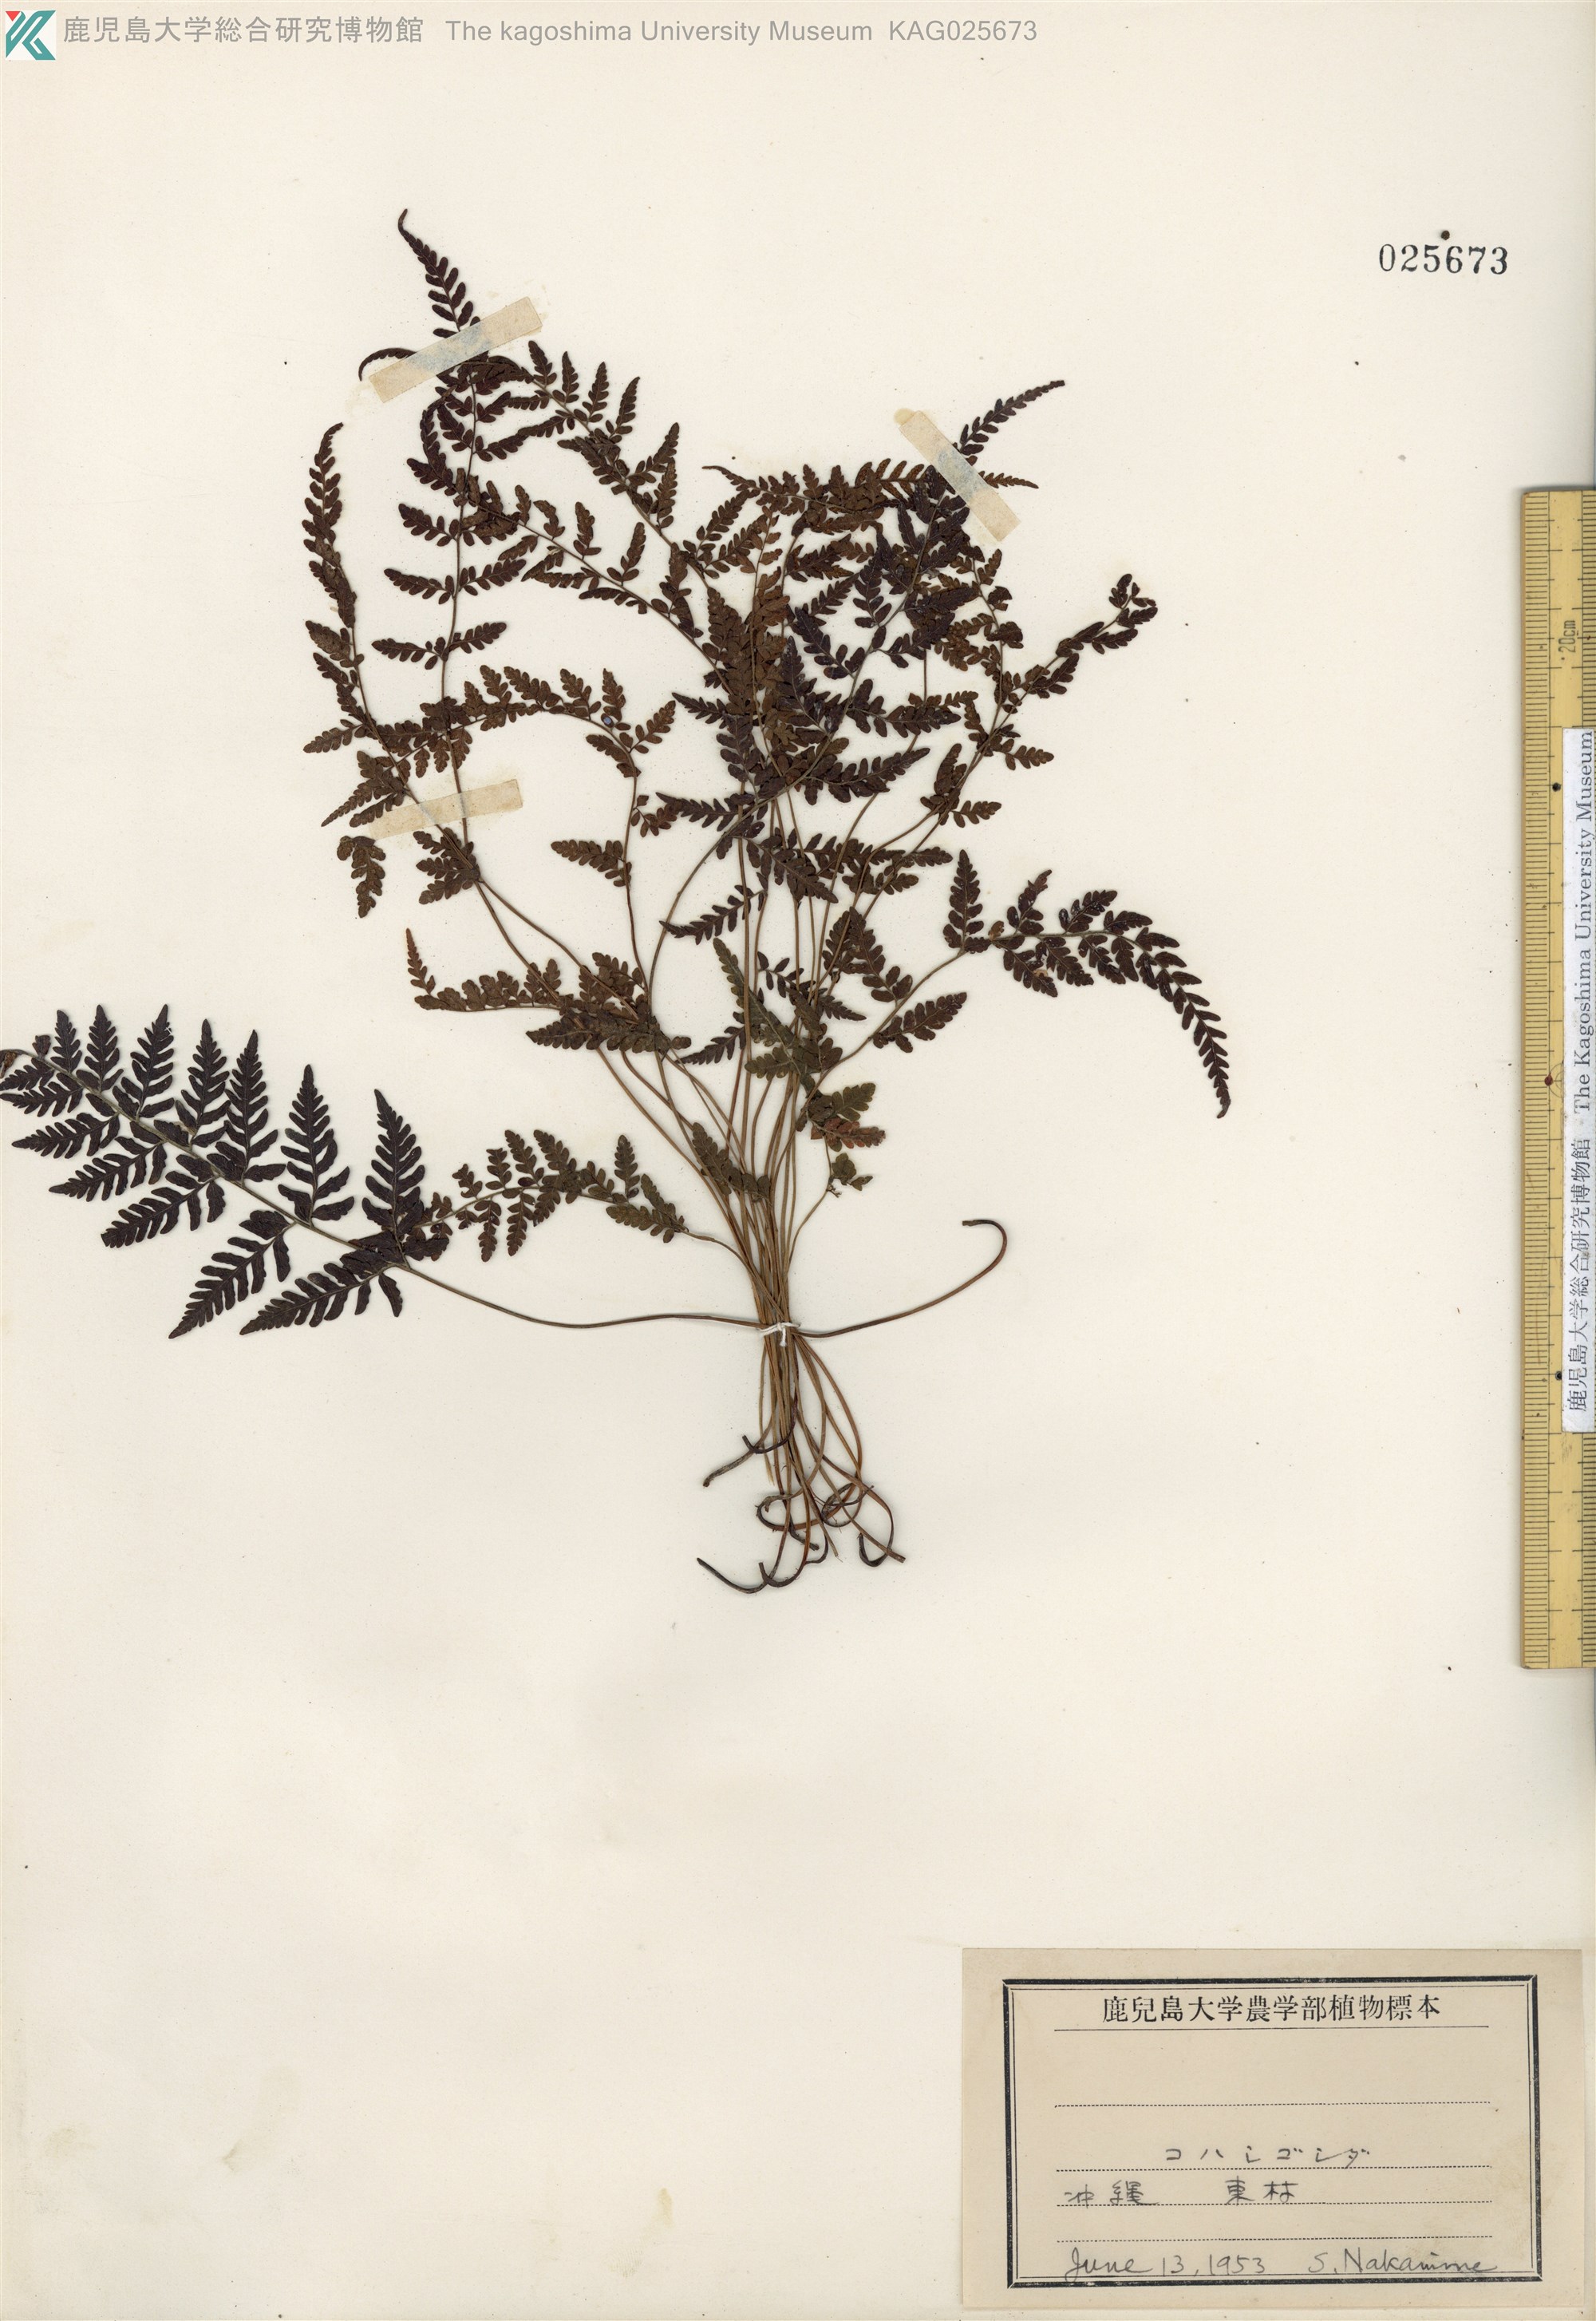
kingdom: Plantae
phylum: Tracheophyta
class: Polypodiopsida
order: Polypodiales
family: Thelypteridaceae
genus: Amauropelta
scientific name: Amauropelta angustifrons
